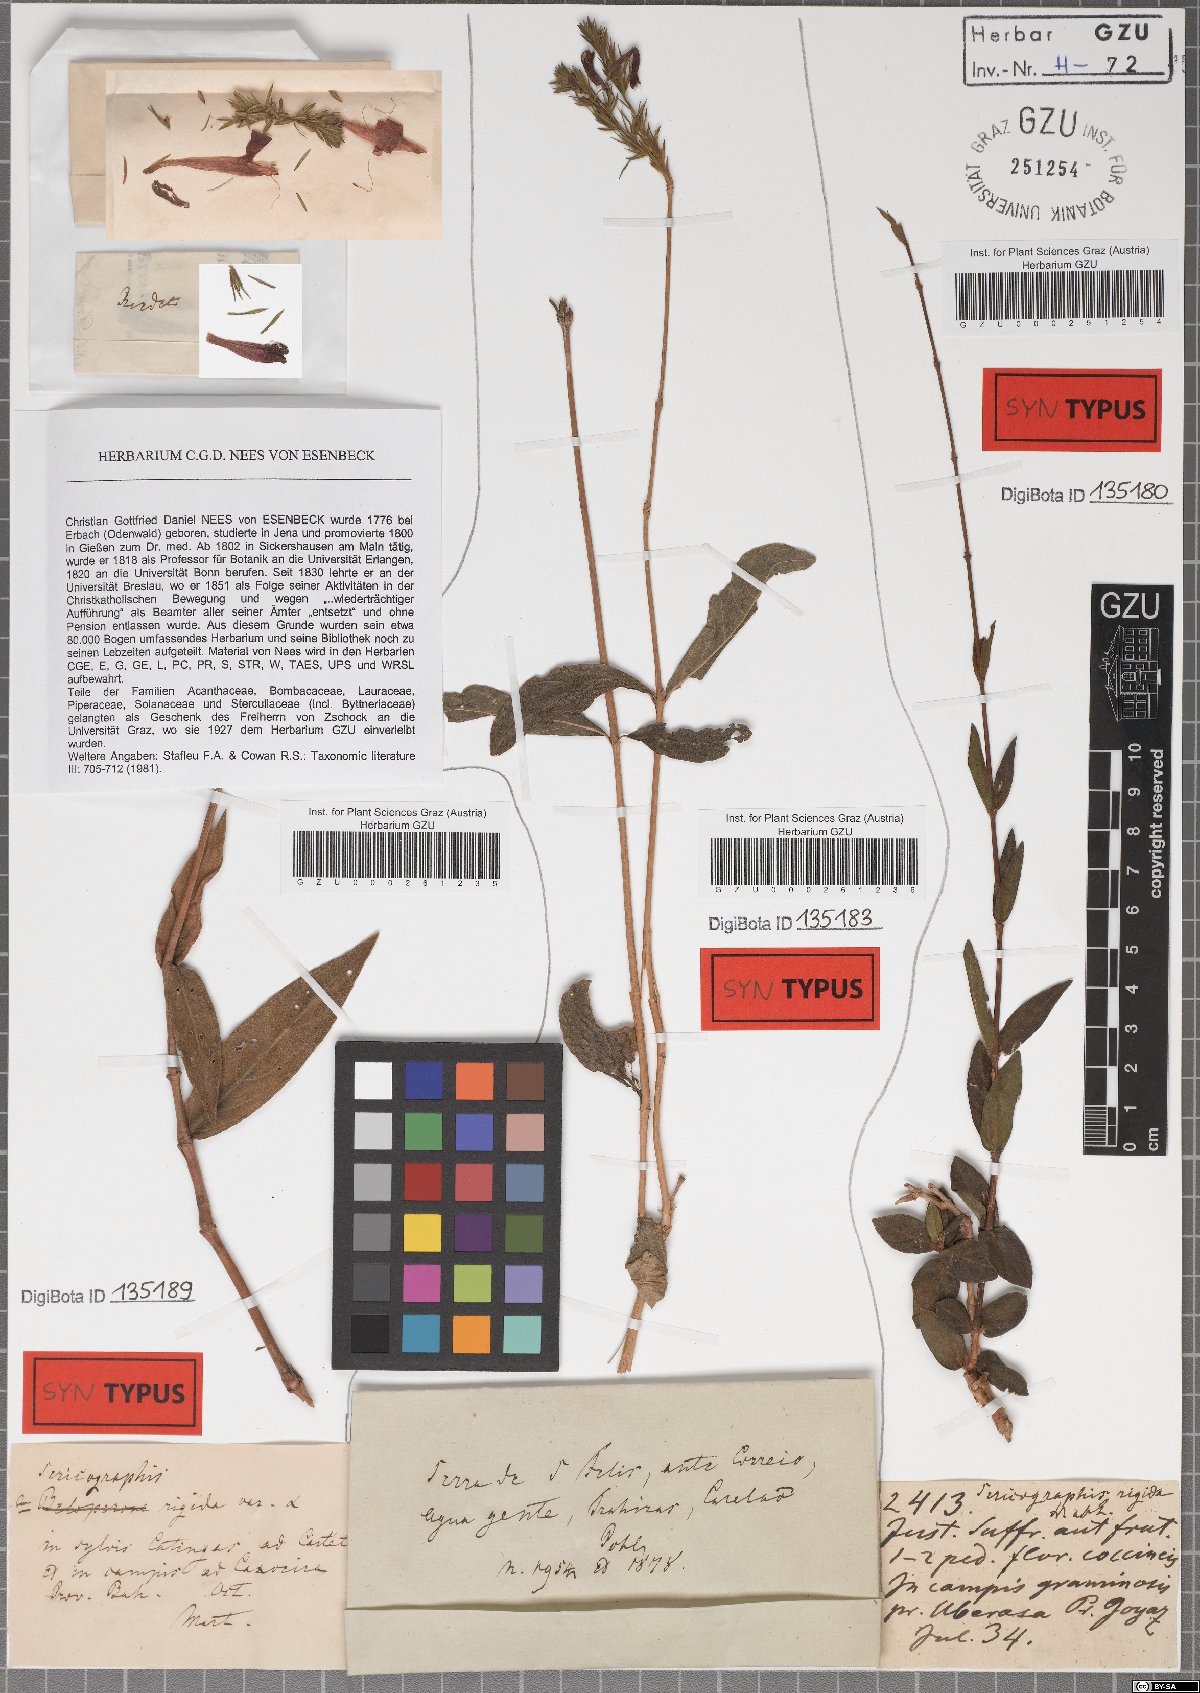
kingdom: Plantae
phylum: Tracheophyta
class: Magnoliopsida
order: Lamiales
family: Acanthaceae
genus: Dianthera
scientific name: Dianthera rigida
